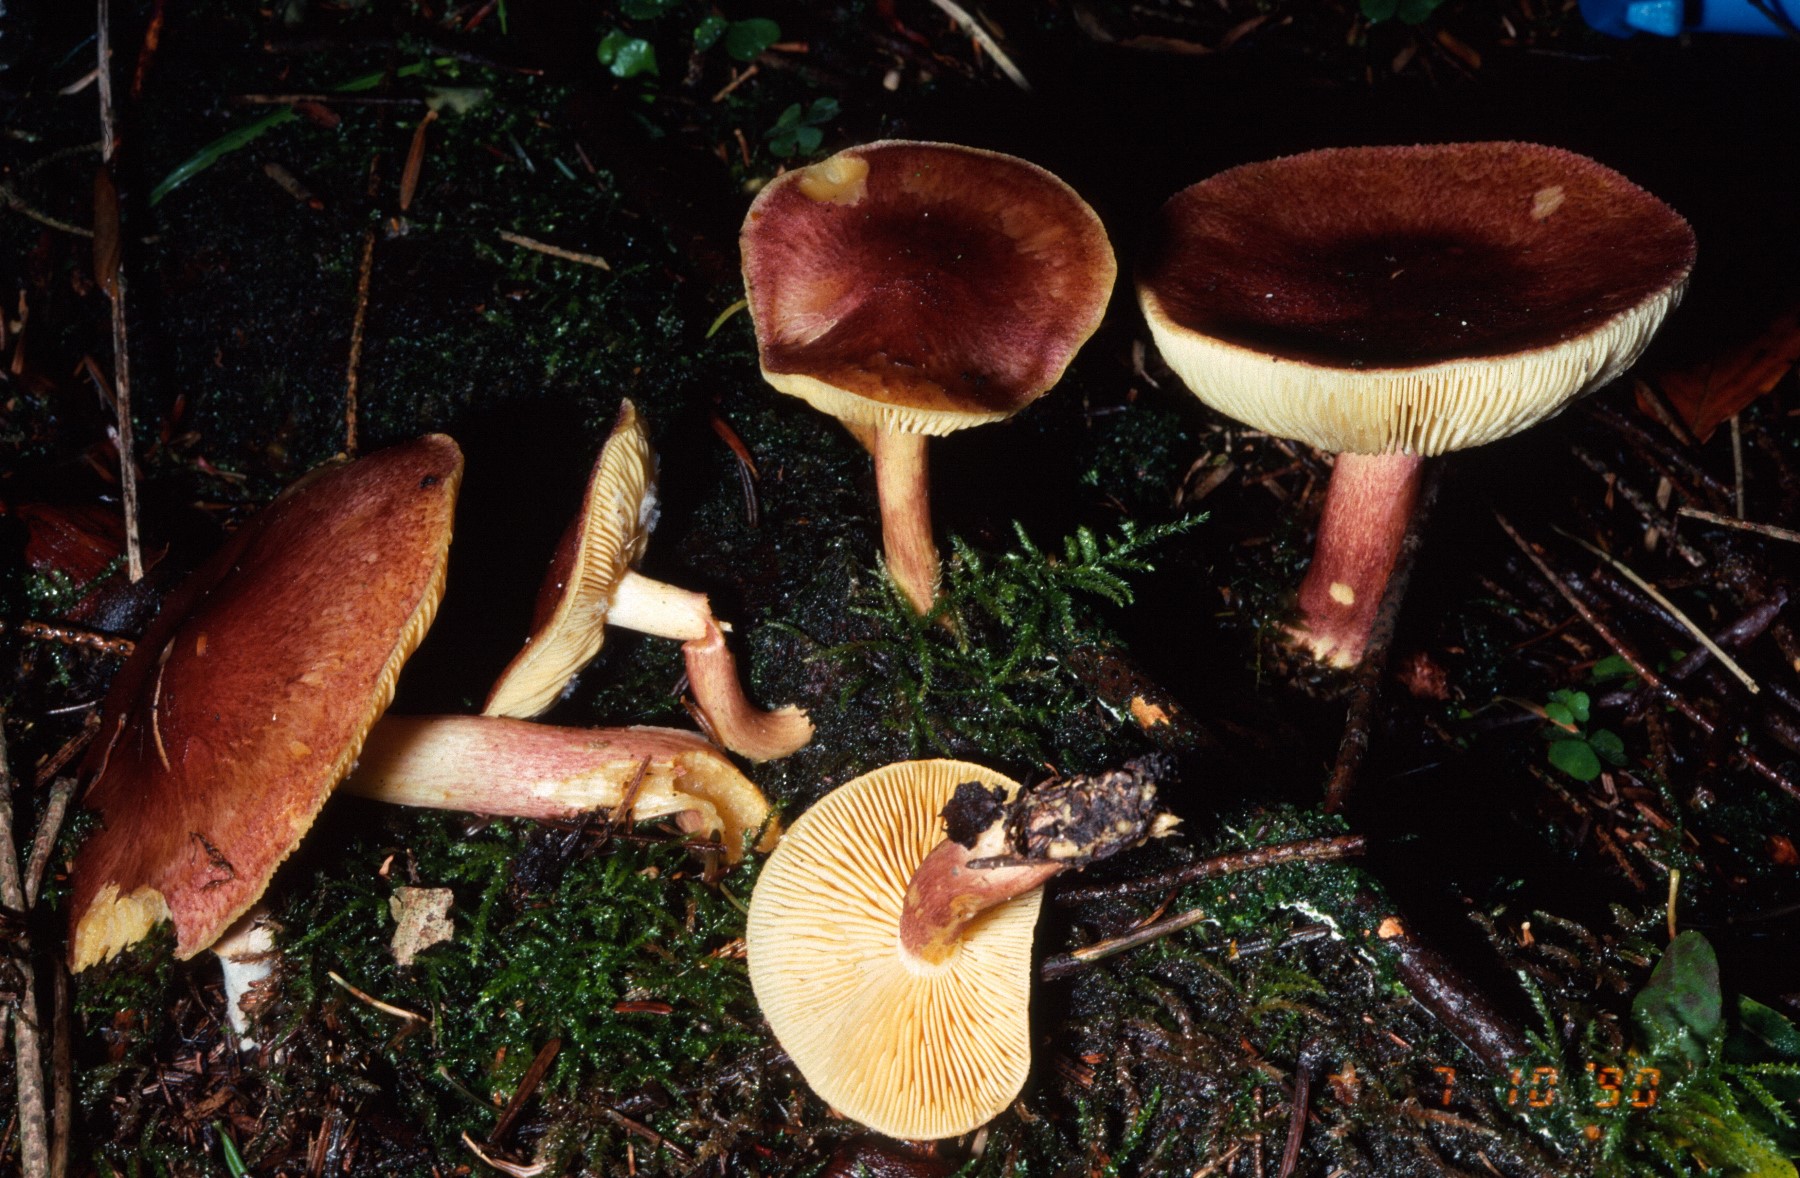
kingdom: Fungi
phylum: Basidiomycota
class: Agaricomycetes
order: Agaricales
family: Tricholomataceae
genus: Tricholomopsis
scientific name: Tricholomopsis rutilans
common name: purpur-væbnerhat
